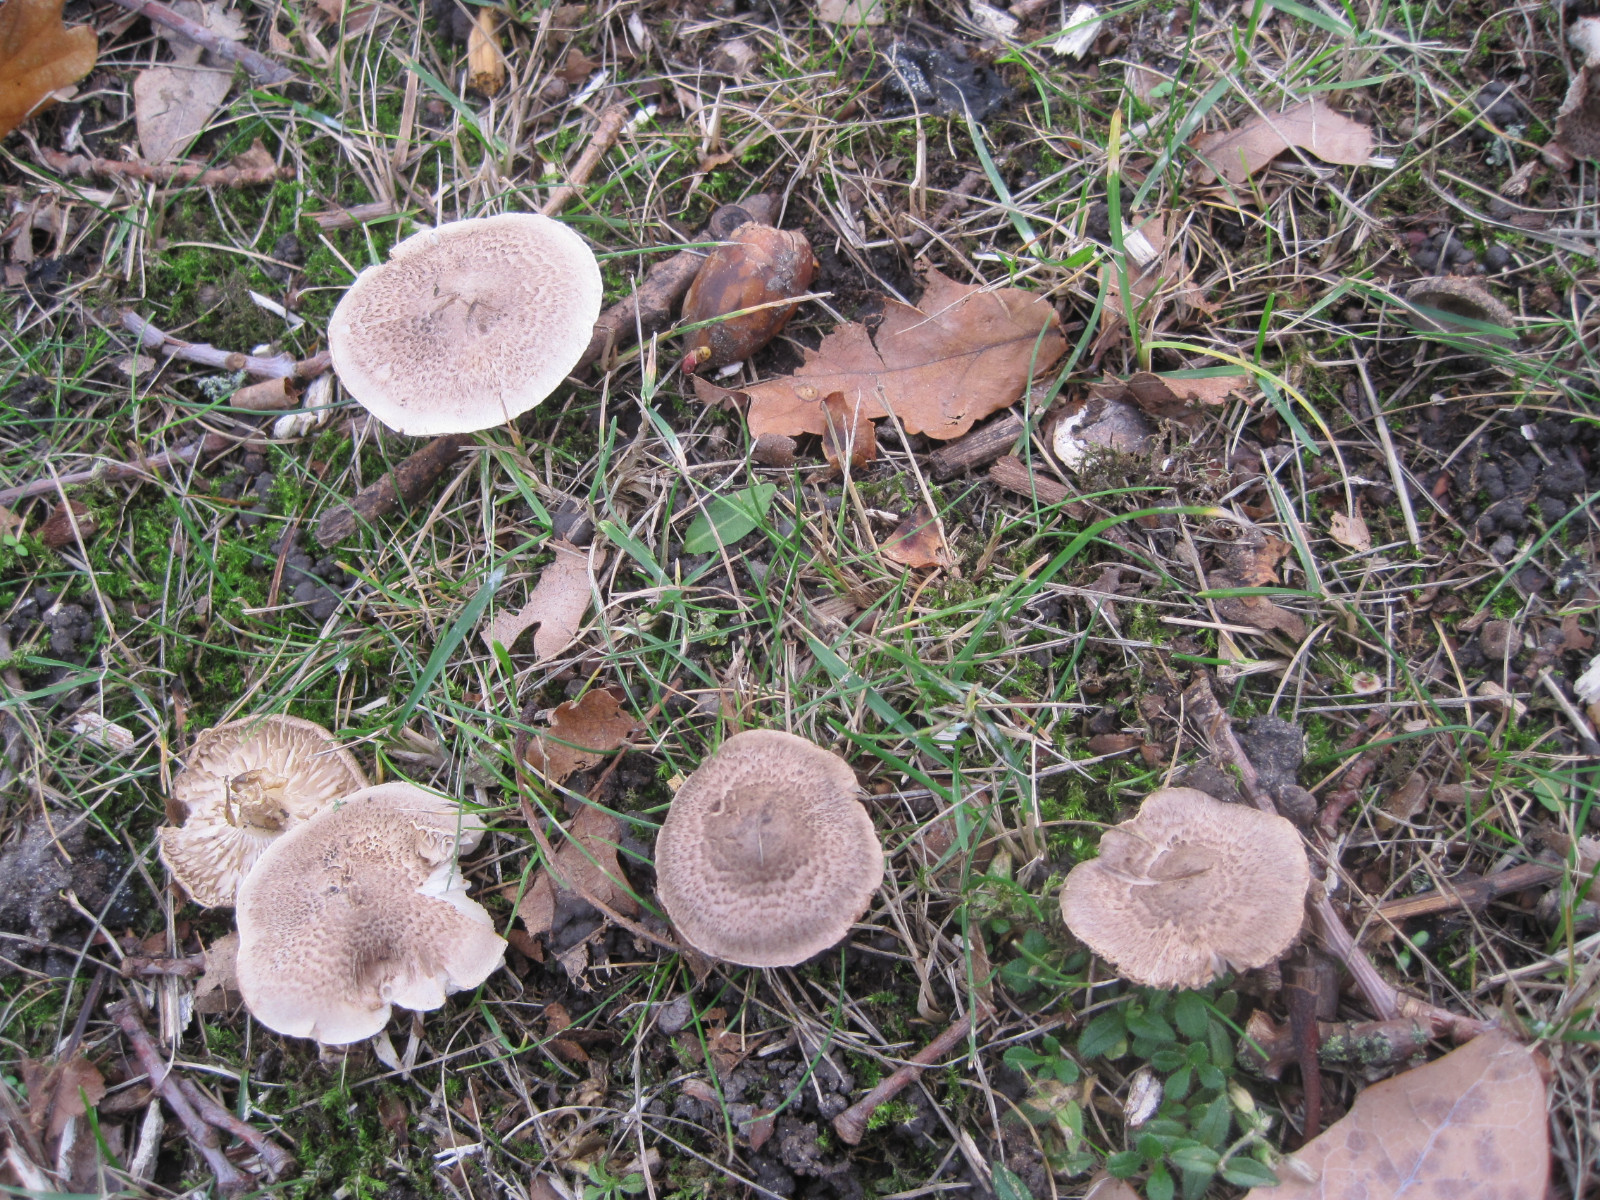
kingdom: Fungi
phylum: Basidiomycota
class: Agaricomycetes
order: Agaricales
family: Tricholomataceae
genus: Tricholoma
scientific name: Tricholoma argyraceum
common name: slør-ridderhat
